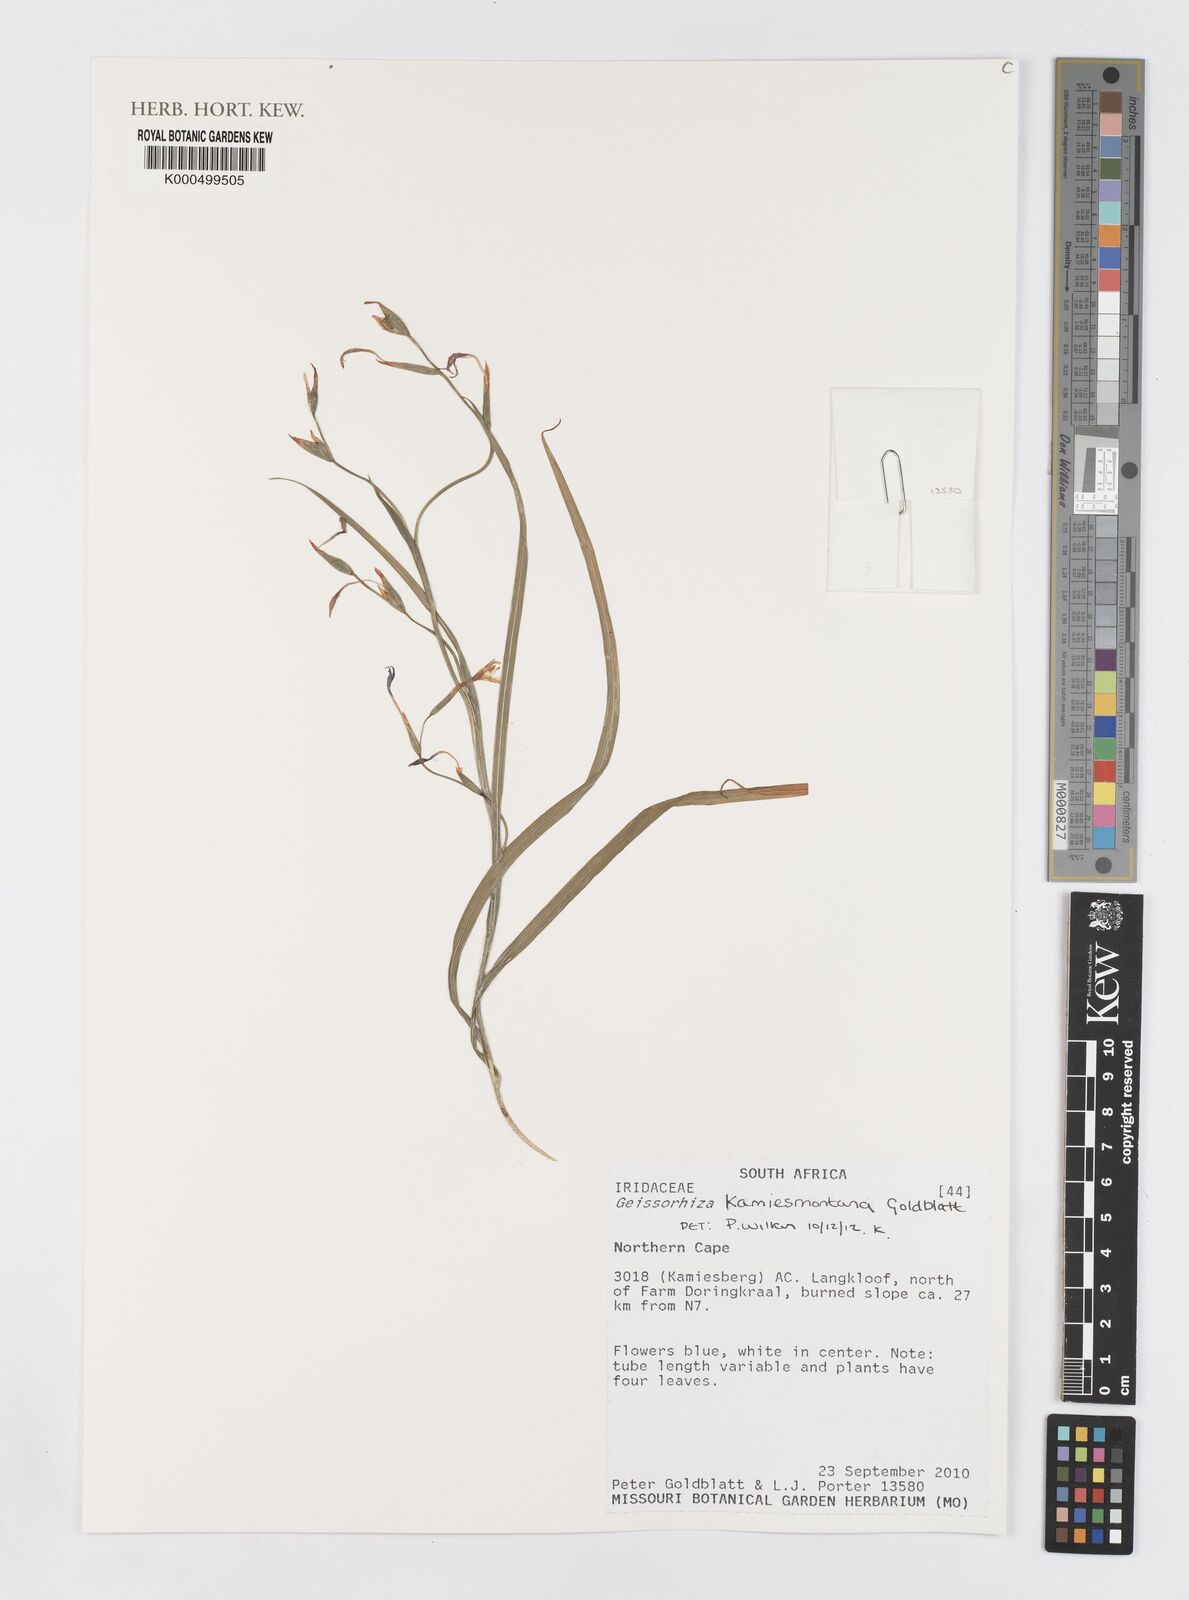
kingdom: Plantae
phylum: Tracheophyta
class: Liliopsida
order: Asparagales
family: Iridaceae
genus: Geissorhiza
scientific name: Geissorhiza kamiesmontana
